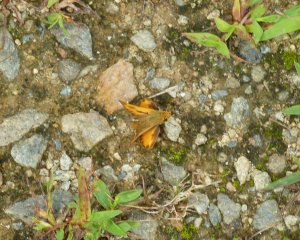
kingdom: Animalia
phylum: Arthropoda
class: Insecta
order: Lepidoptera
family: Hesperiidae
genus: Hylephila
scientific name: Hylephila phyleus
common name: Fiery Skipper
